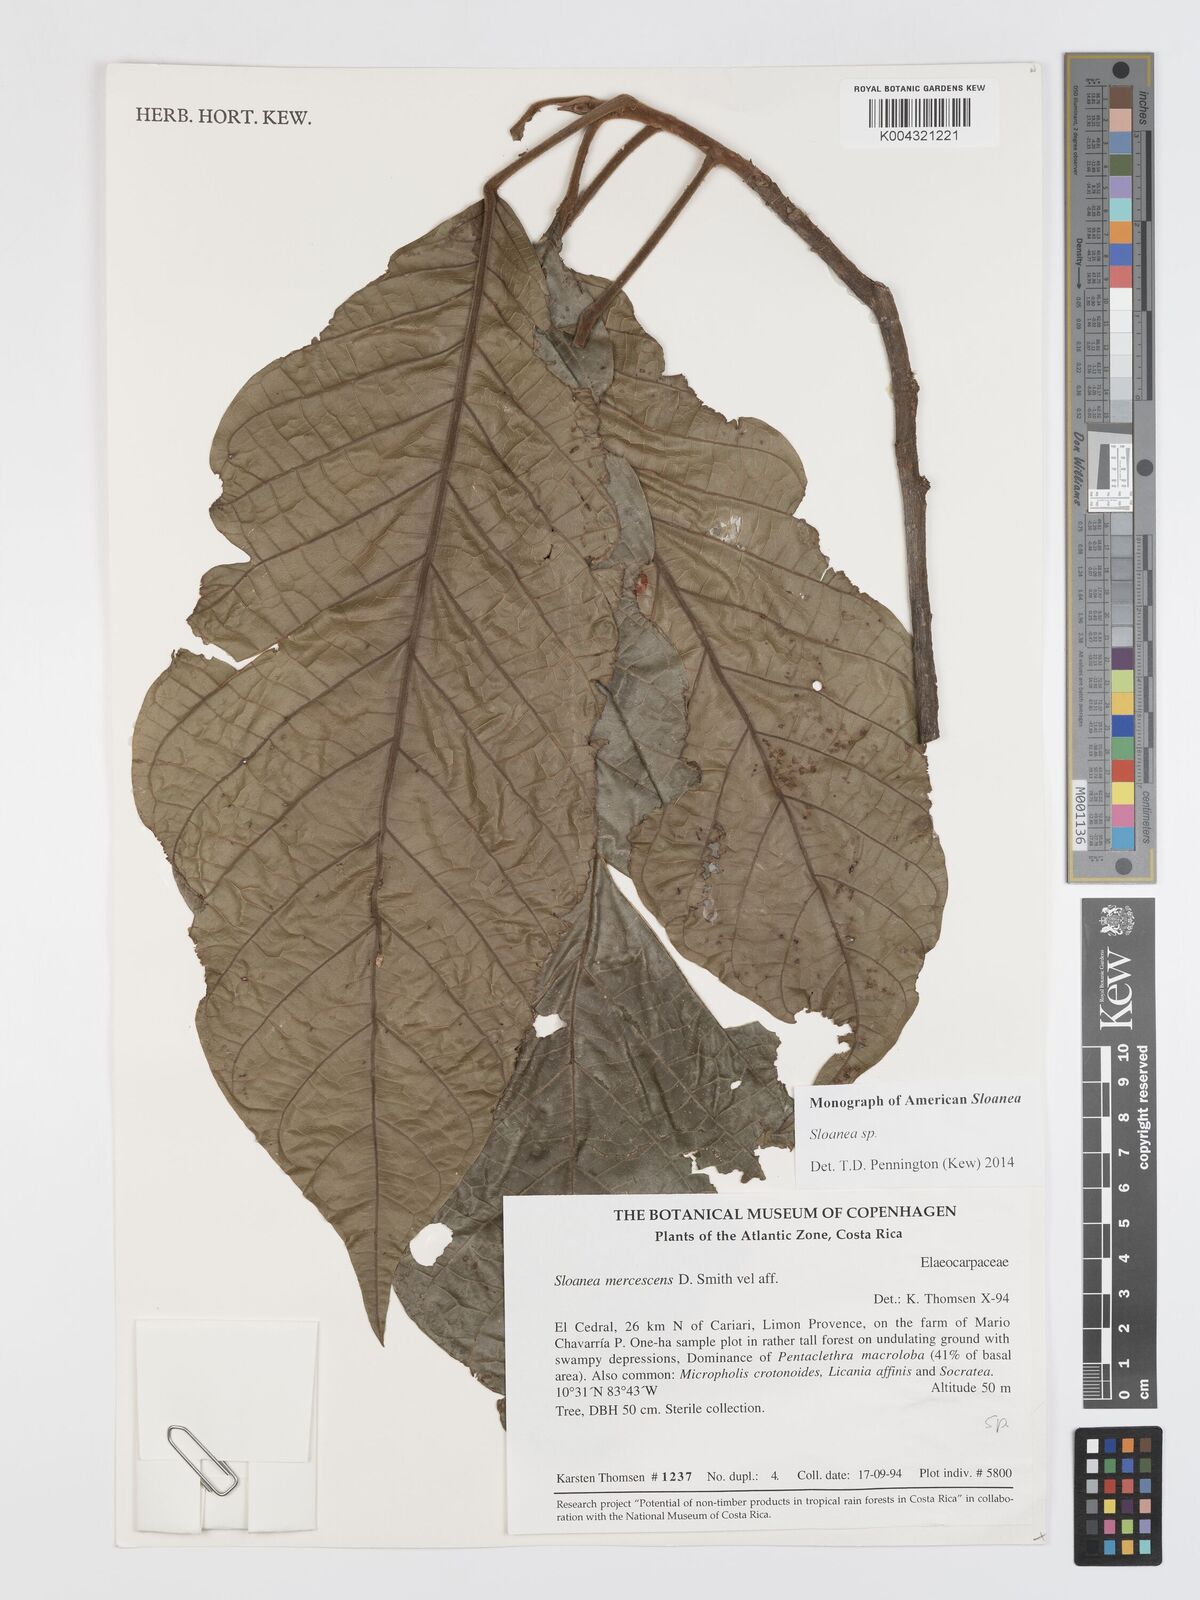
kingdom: Plantae
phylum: Tracheophyta
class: Magnoliopsida
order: Oxalidales
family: Elaeocarpaceae
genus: Sloanea
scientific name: Sloanea
